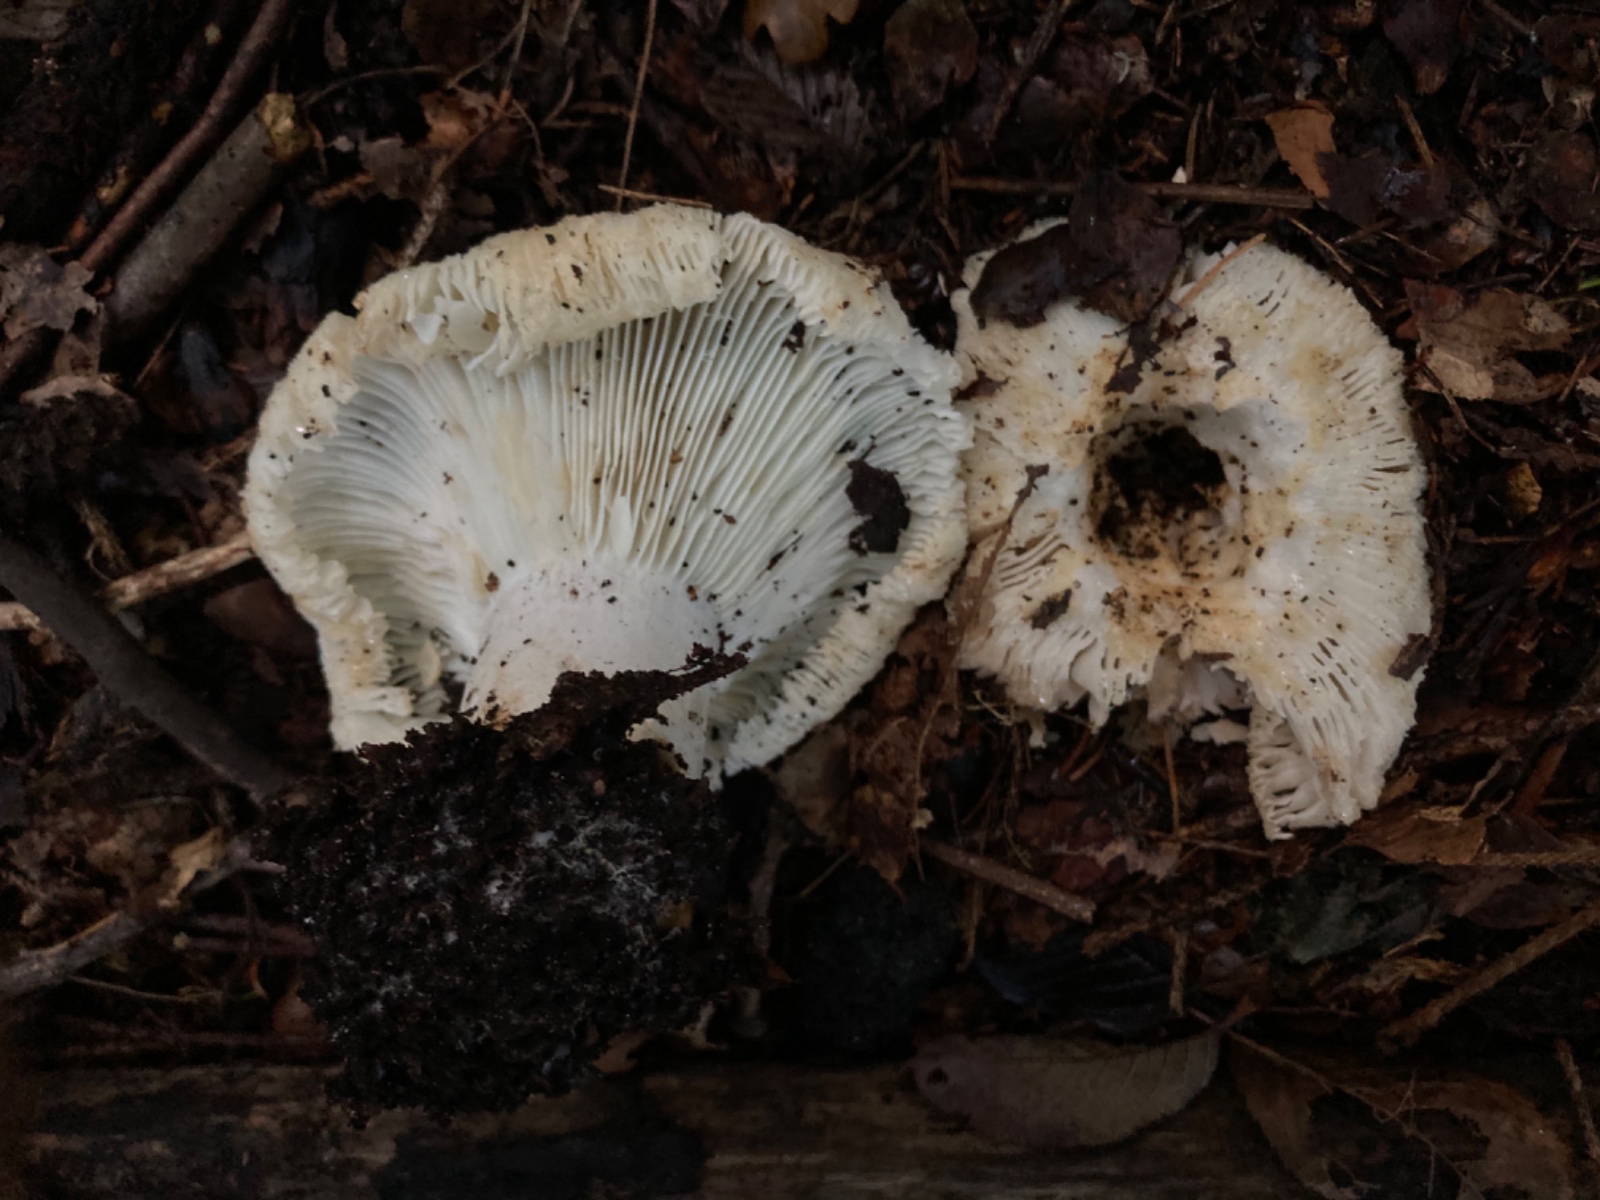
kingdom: Fungi
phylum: Basidiomycota
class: Agaricomycetes
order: Russulales
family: Russulaceae
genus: Russula
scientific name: Russula chloroides
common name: grønhalset tragt-skørhat
